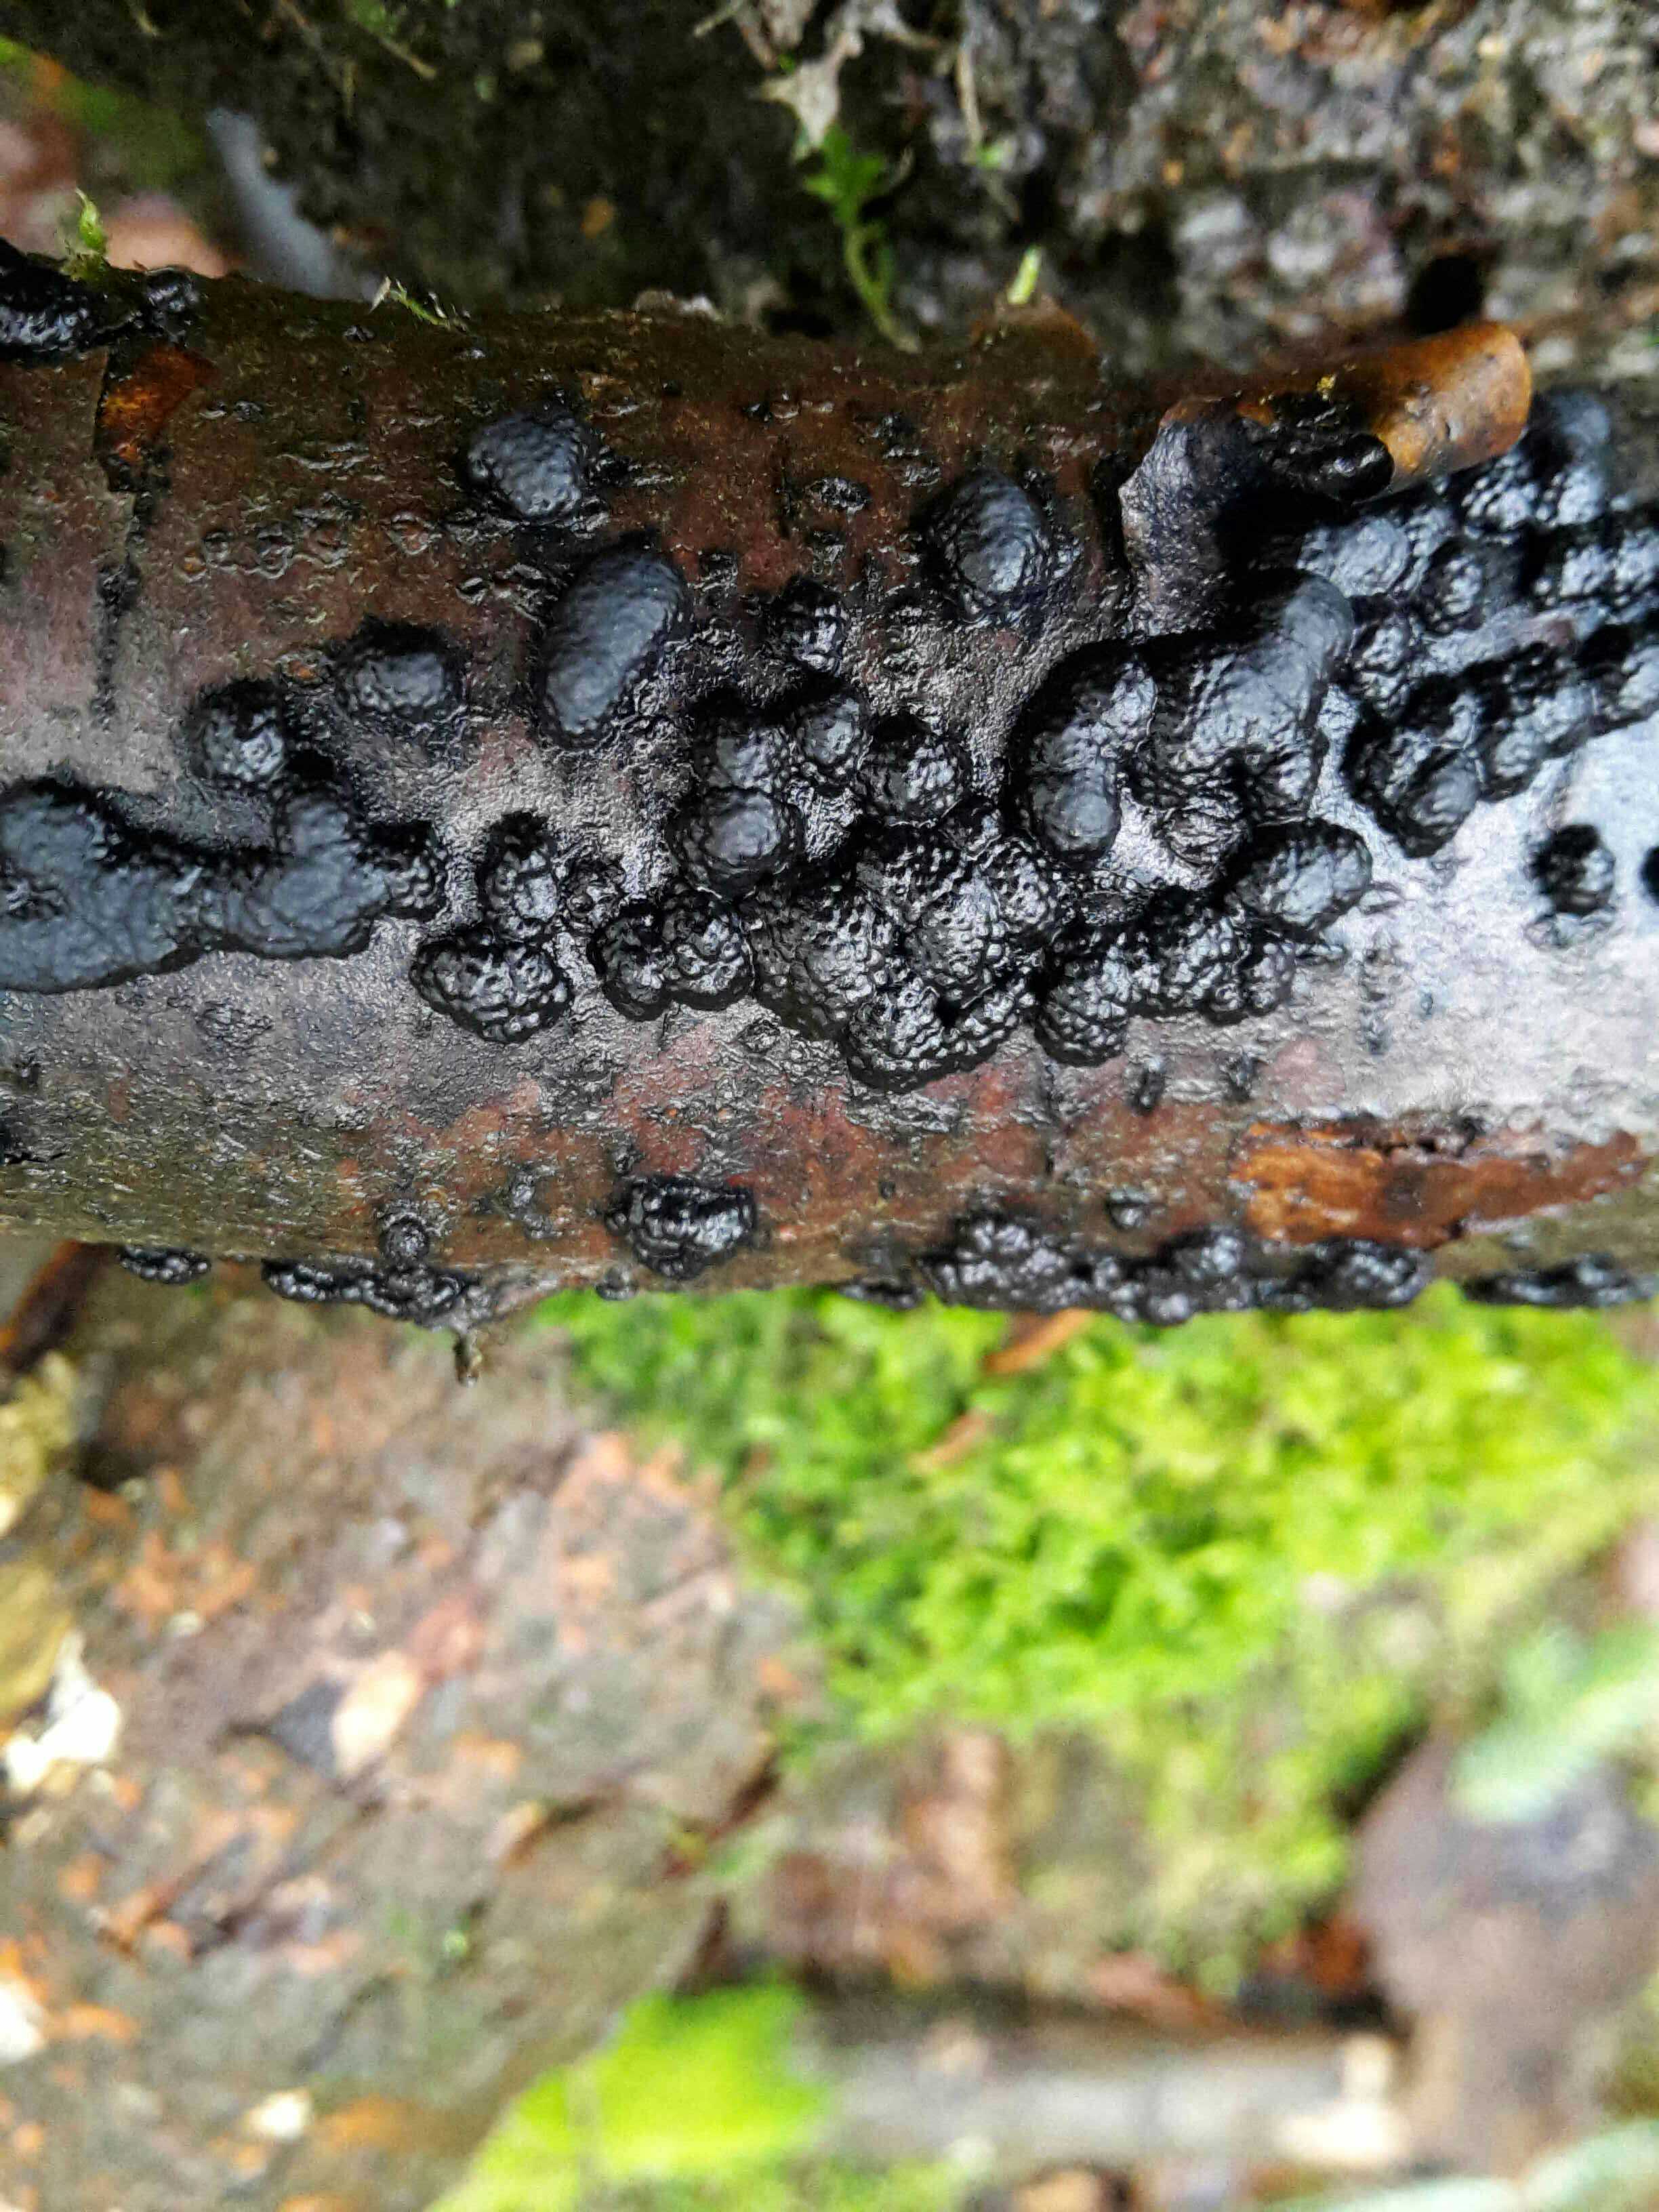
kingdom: Fungi
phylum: Ascomycota
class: Sordariomycetes
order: Xylariales
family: Hypoxylaceae
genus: Jackrogersella
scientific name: Jackrogersella cohaerens
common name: sammenflydende kulbær
